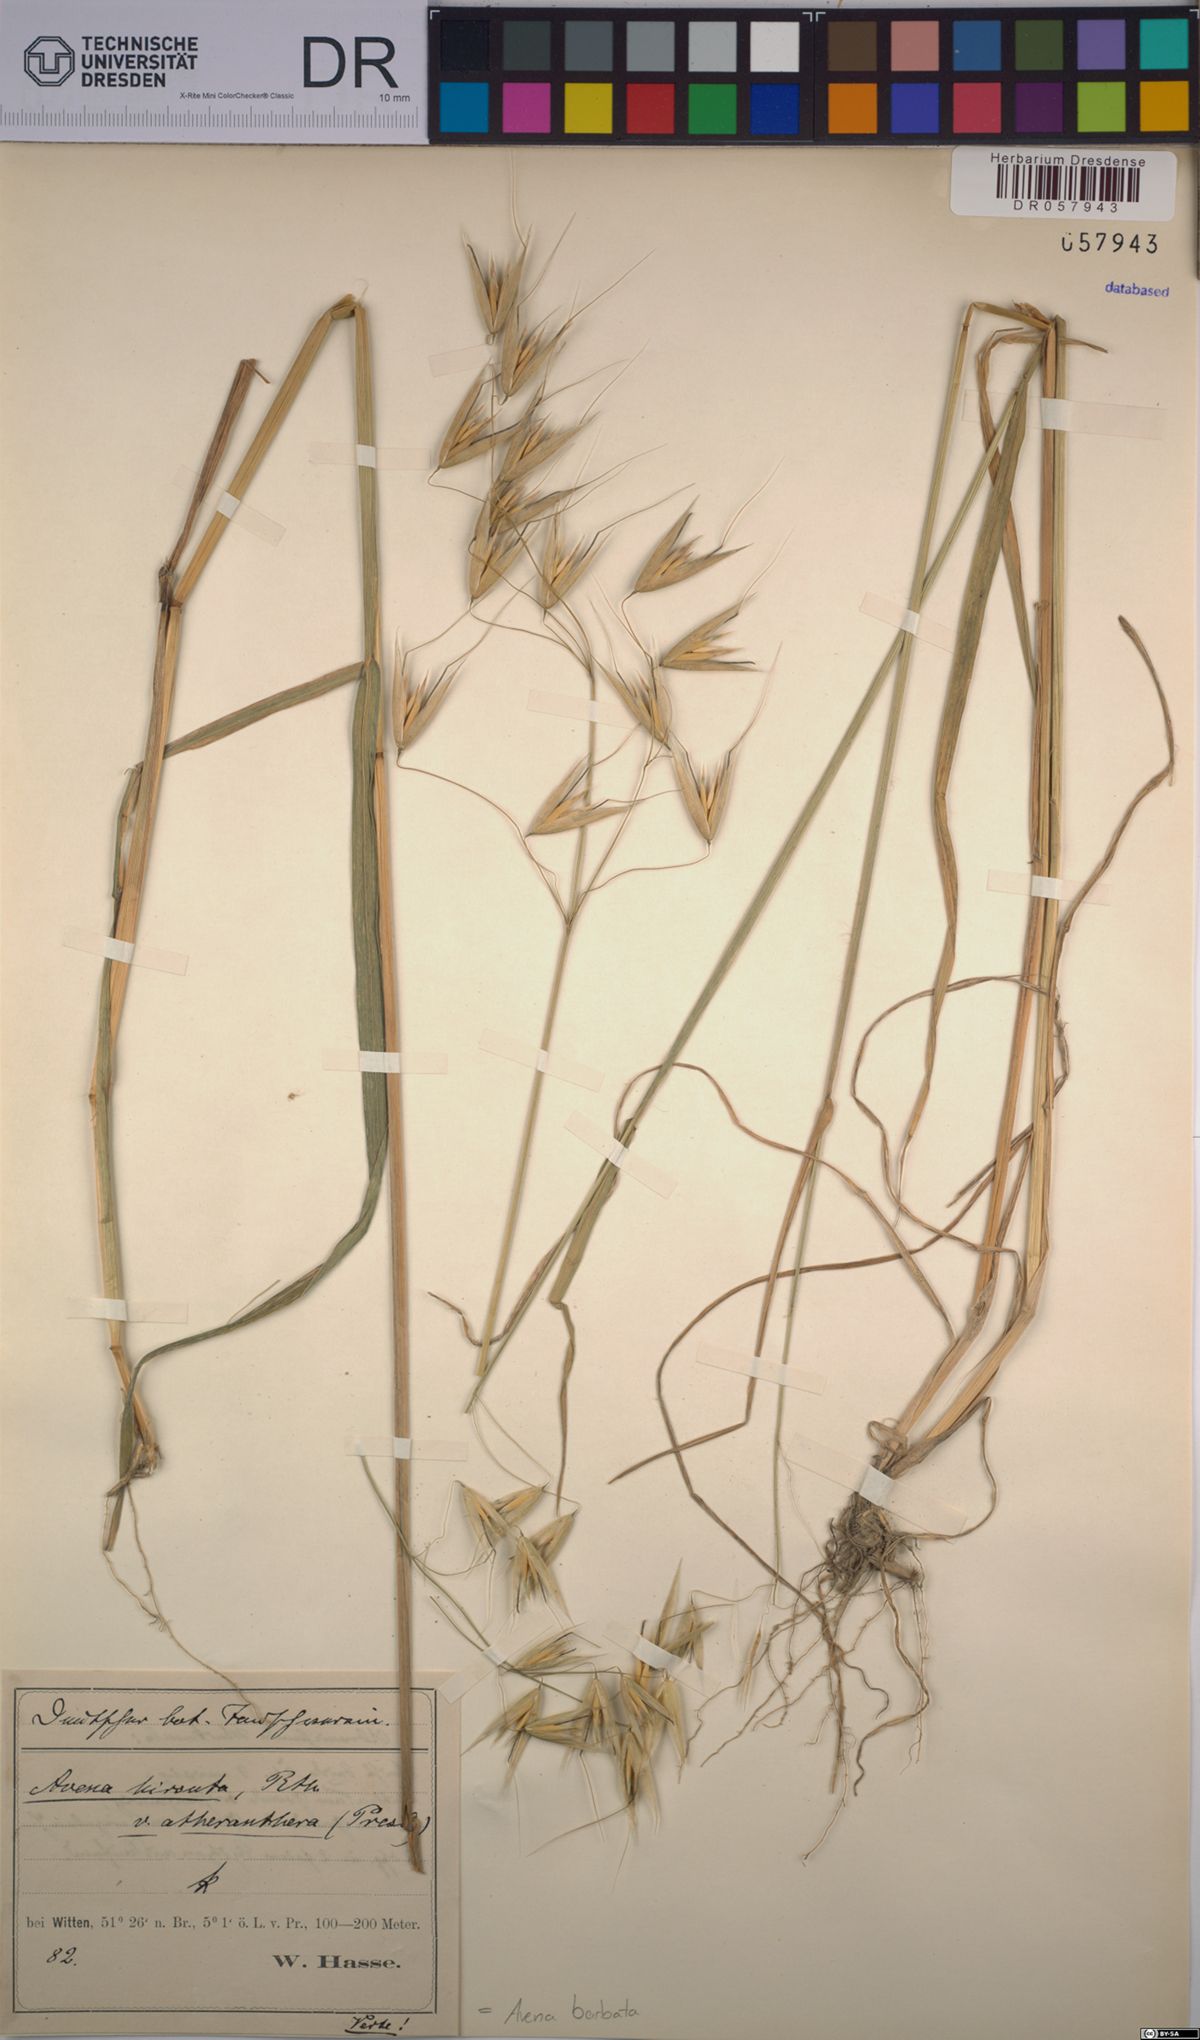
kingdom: Plantae
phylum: Tracheophyta
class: Liliopsida
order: Poales
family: Poaceae
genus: Avena
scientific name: Avena barbata
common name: Slender oat
